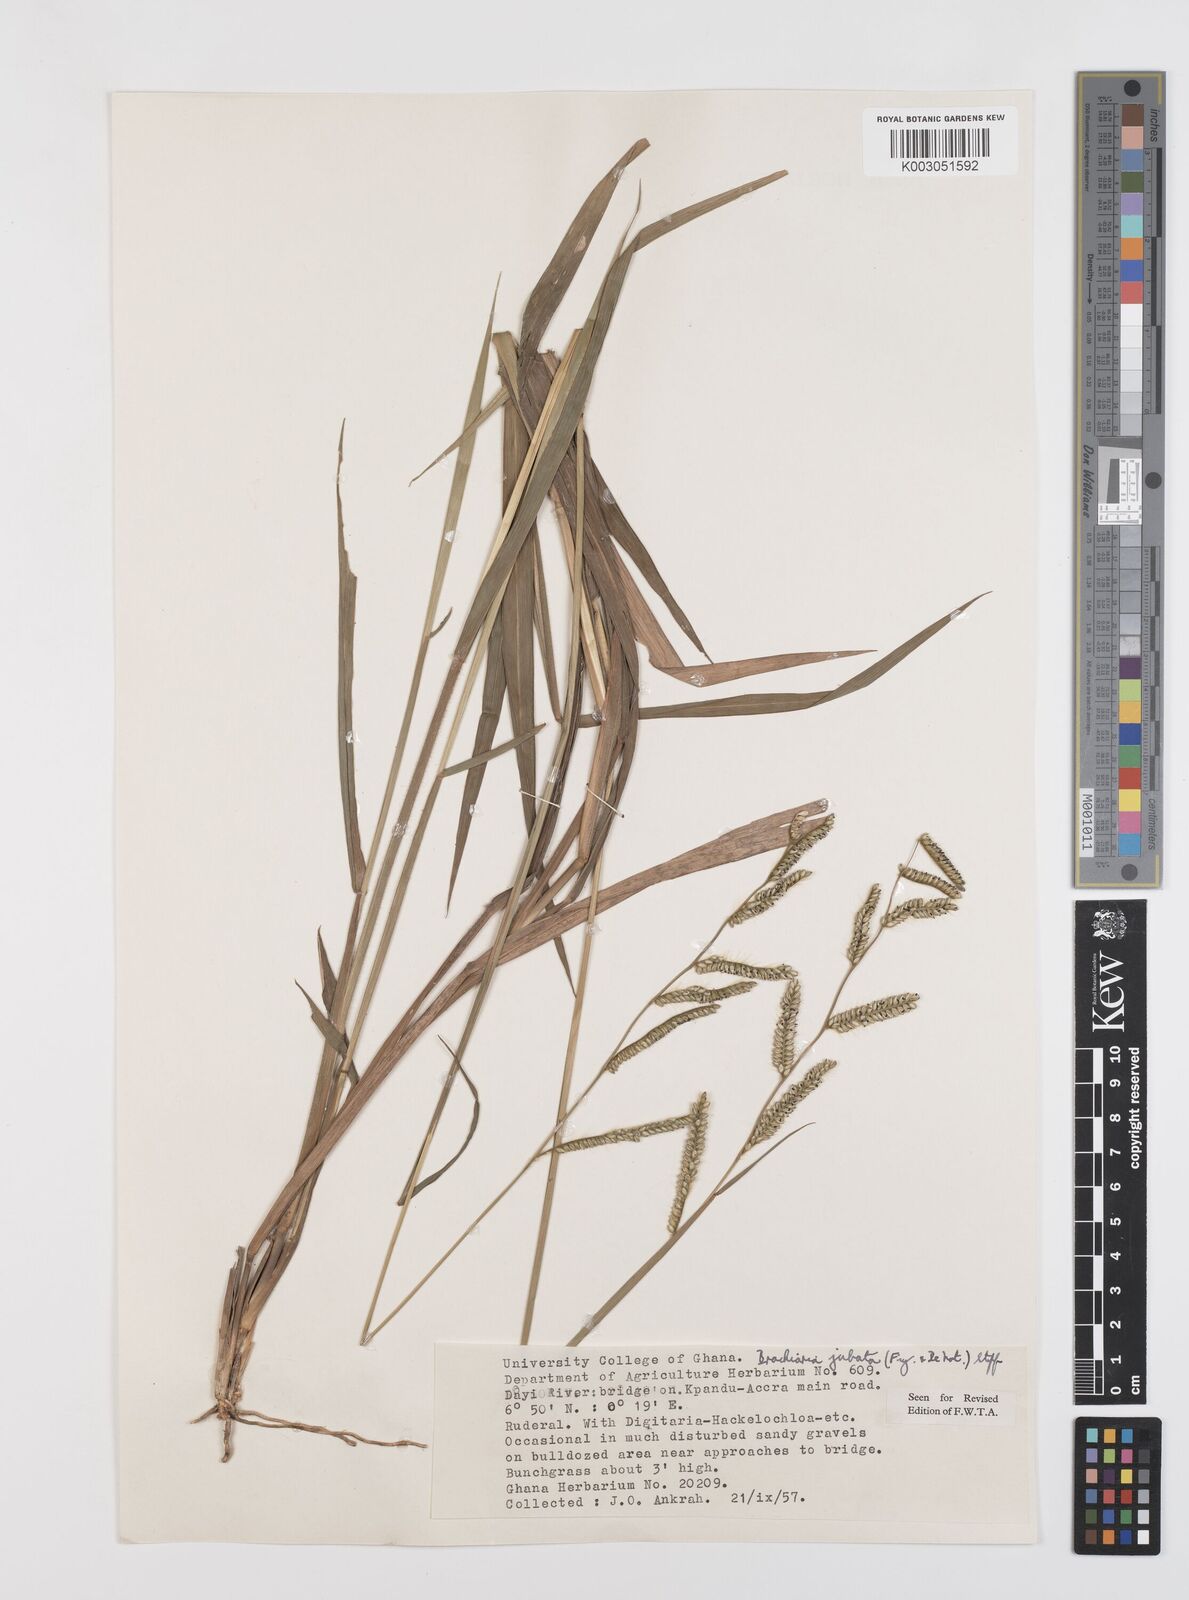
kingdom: Plantae
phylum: Tracheophyta
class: Liliopsida
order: Poales
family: Poaceae
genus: Urochloa
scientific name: Urochloa jubata
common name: Buffalograss
